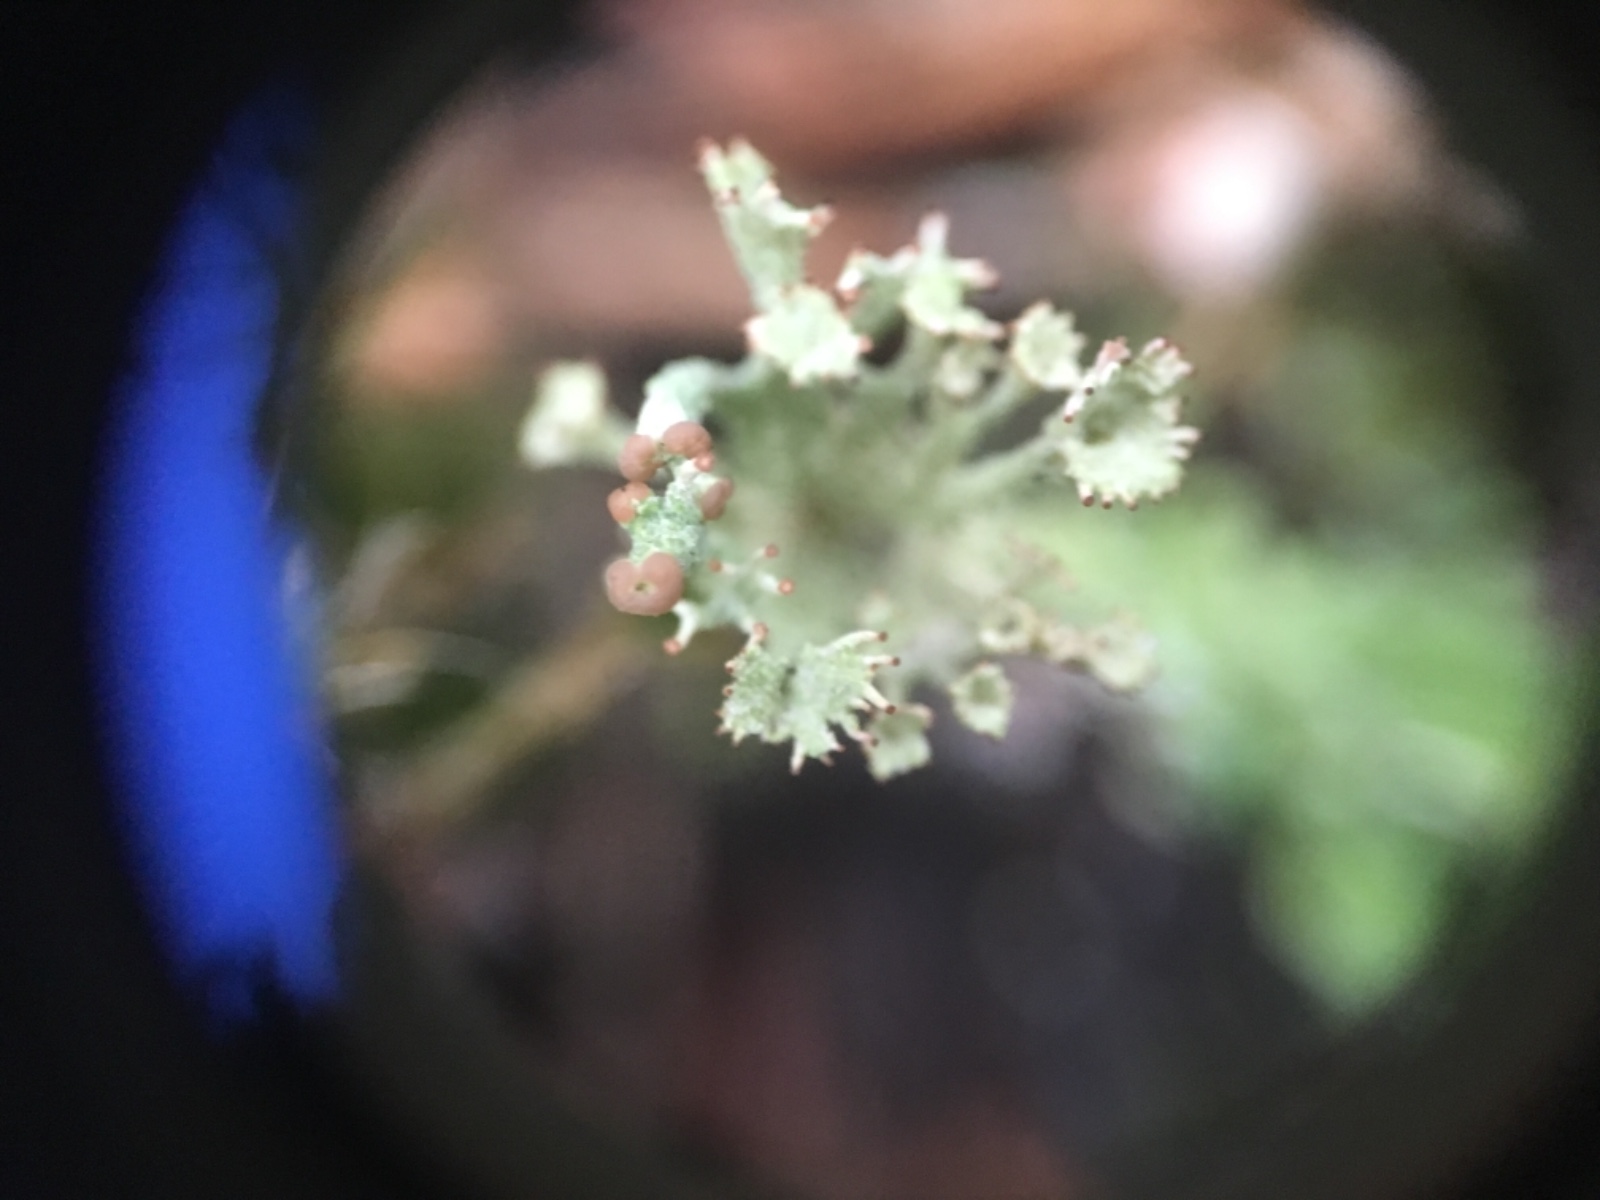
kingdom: Fungi
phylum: Ascomycota
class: Lecanoromycetes
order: Lecanorales
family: Cladoniaceae
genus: Cladonia
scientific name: Cladonia ramulosa
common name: kliddet bægerlav
